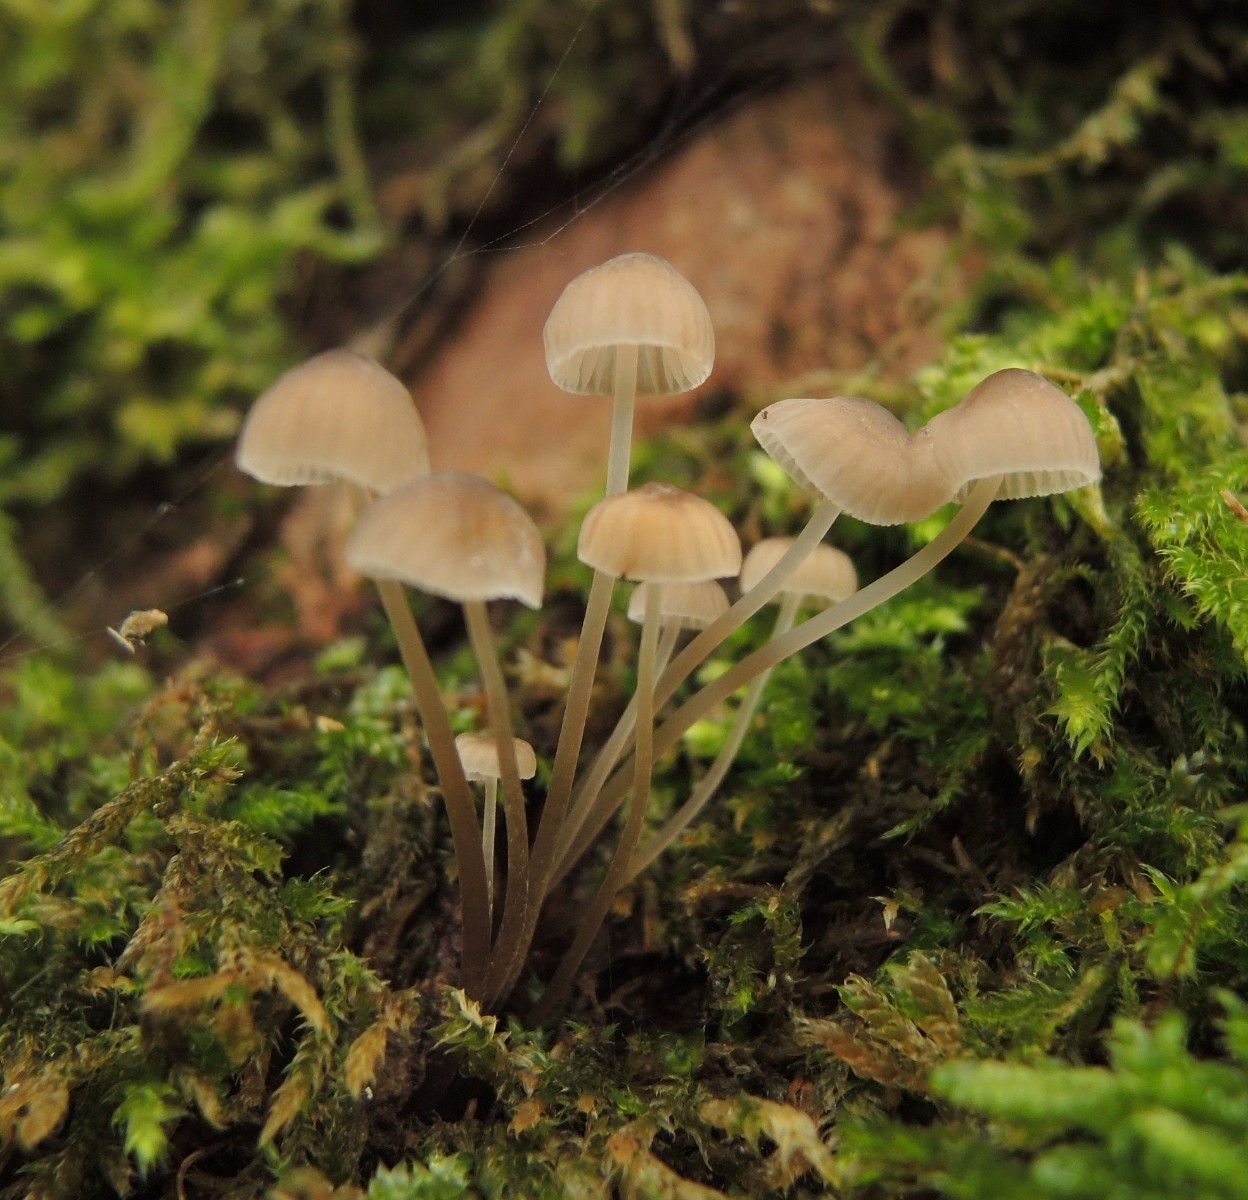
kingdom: Fungi
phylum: Basidiomycota
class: Agaricomycetes
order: Agaricales
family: Mycenaceae
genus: Mycena
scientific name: Mycena erubescens
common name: galde-huesvamp
